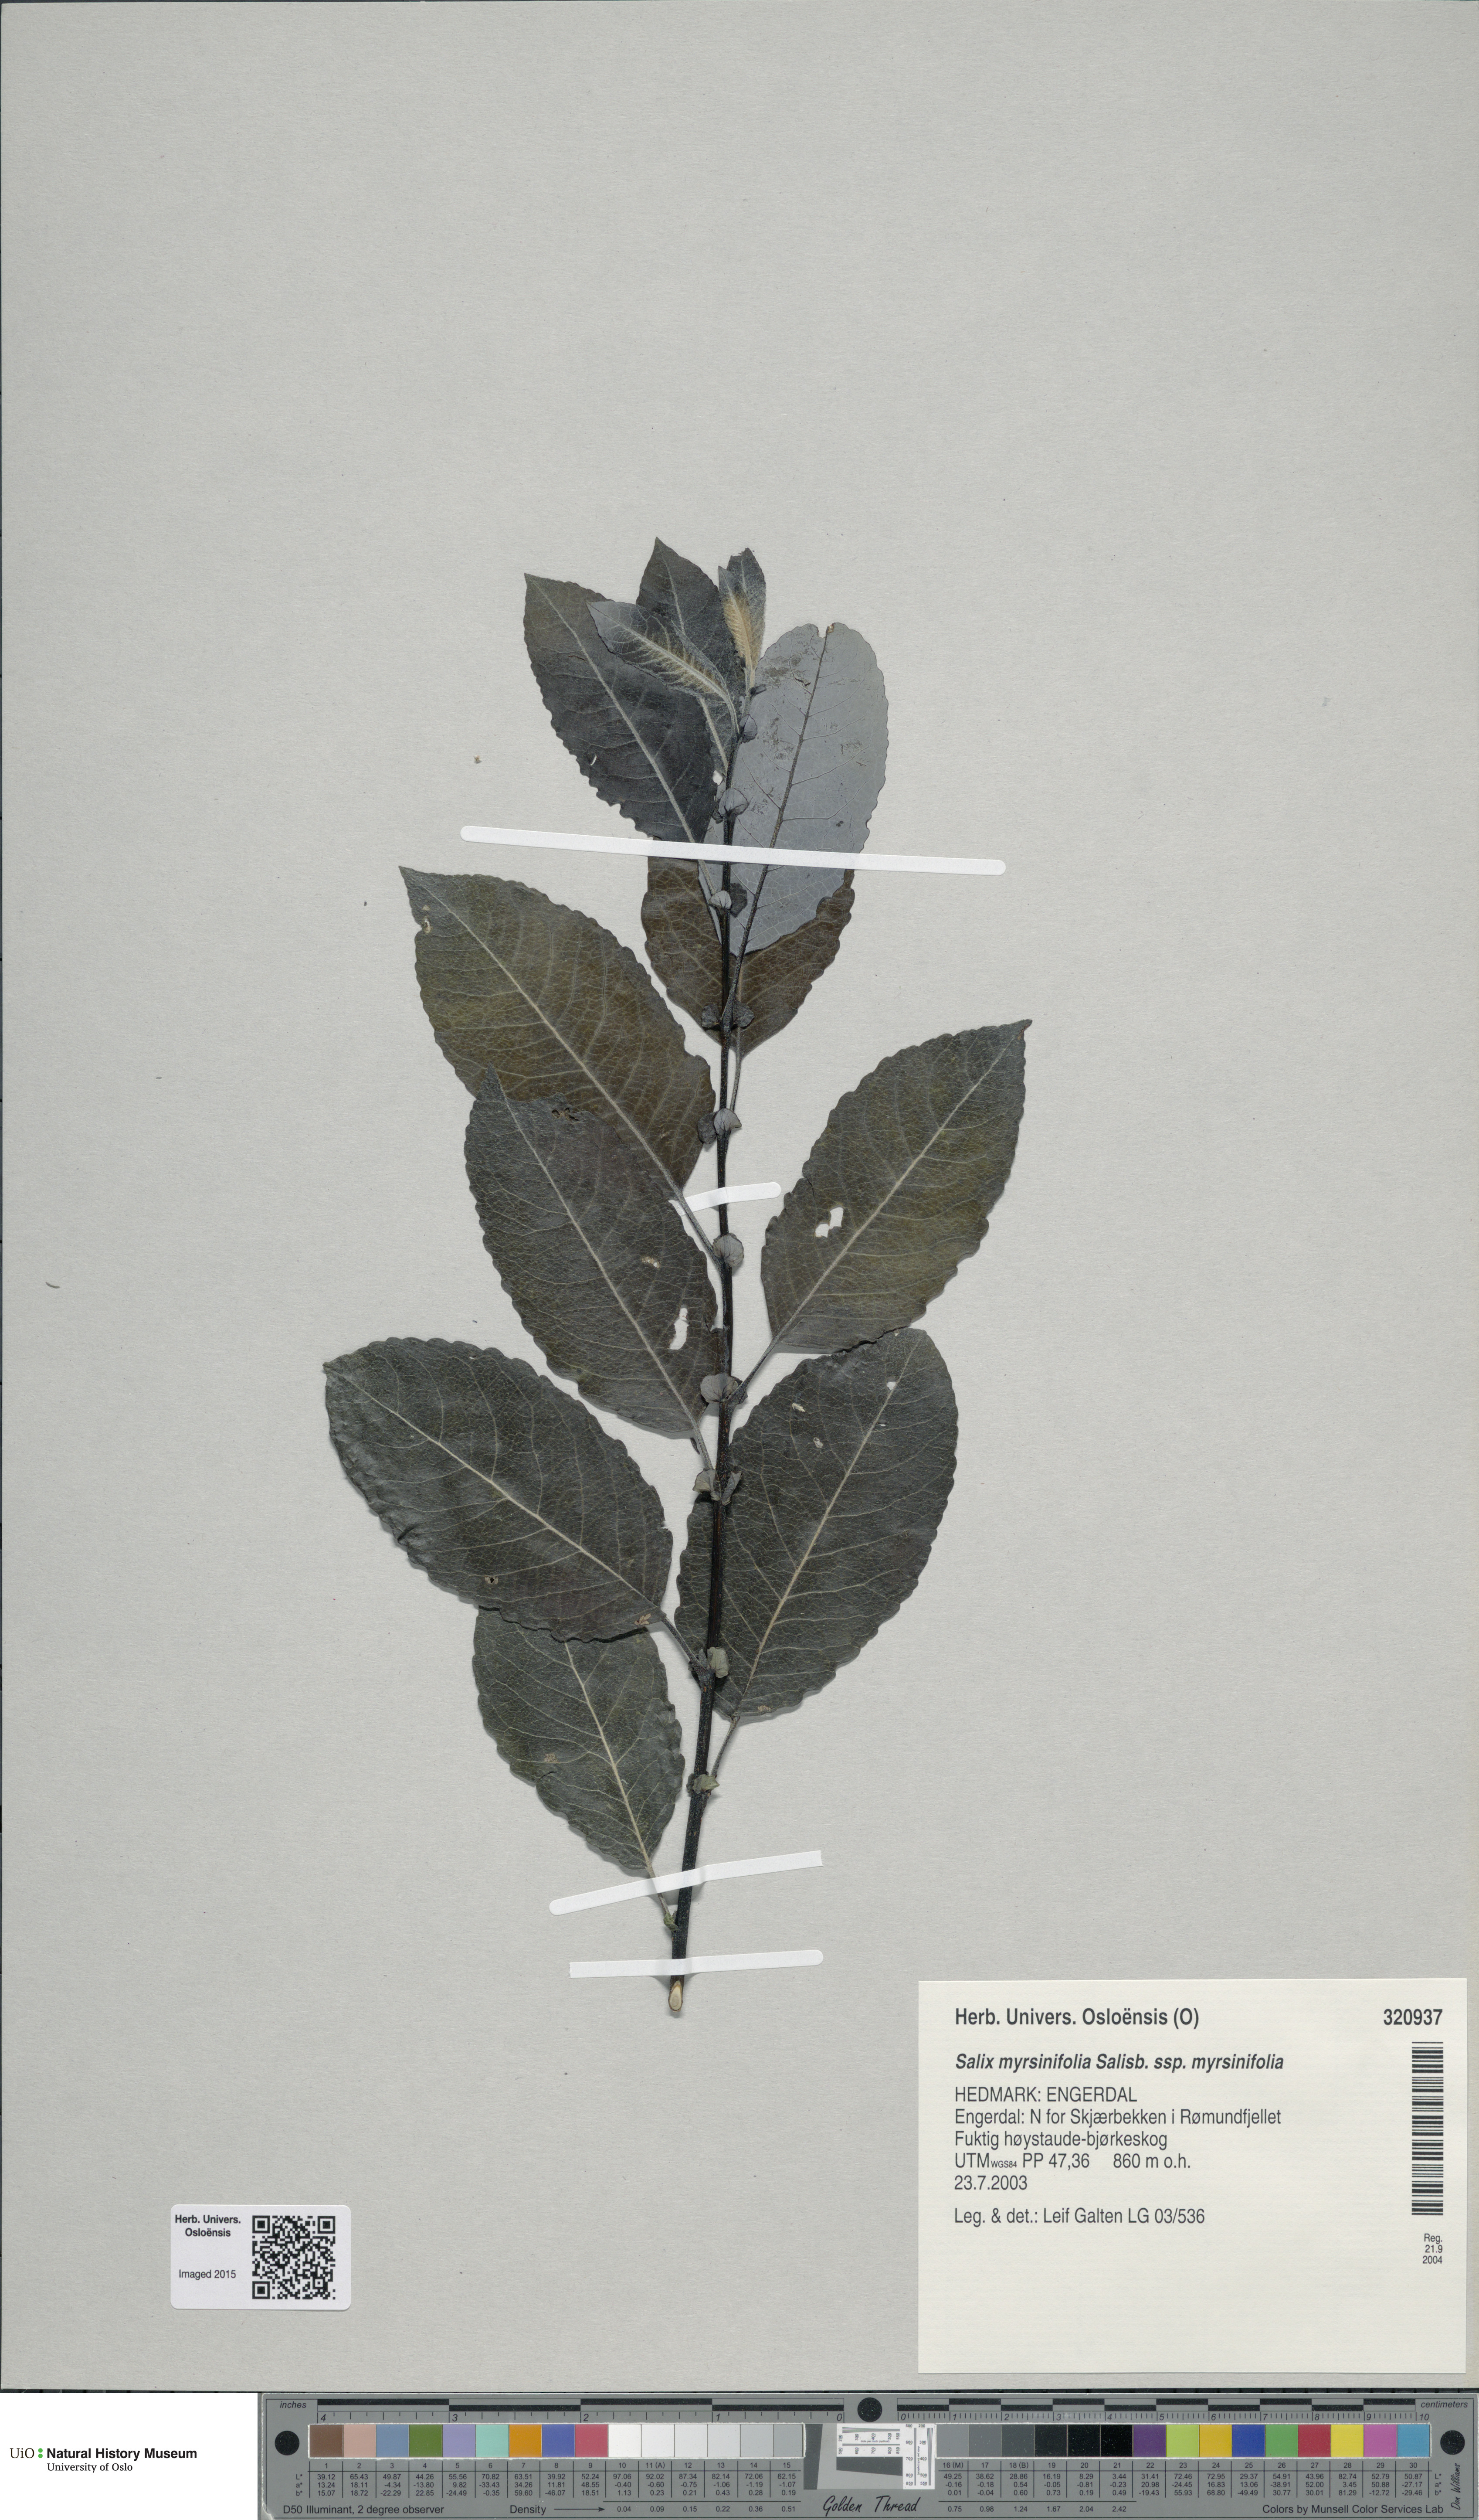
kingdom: Plantae
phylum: Tracheophyta
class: Magnoliopsida
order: Malpighiales
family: Salicaceae
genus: Salix
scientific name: Salix myrsinifolia
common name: Dark-leaved willow
